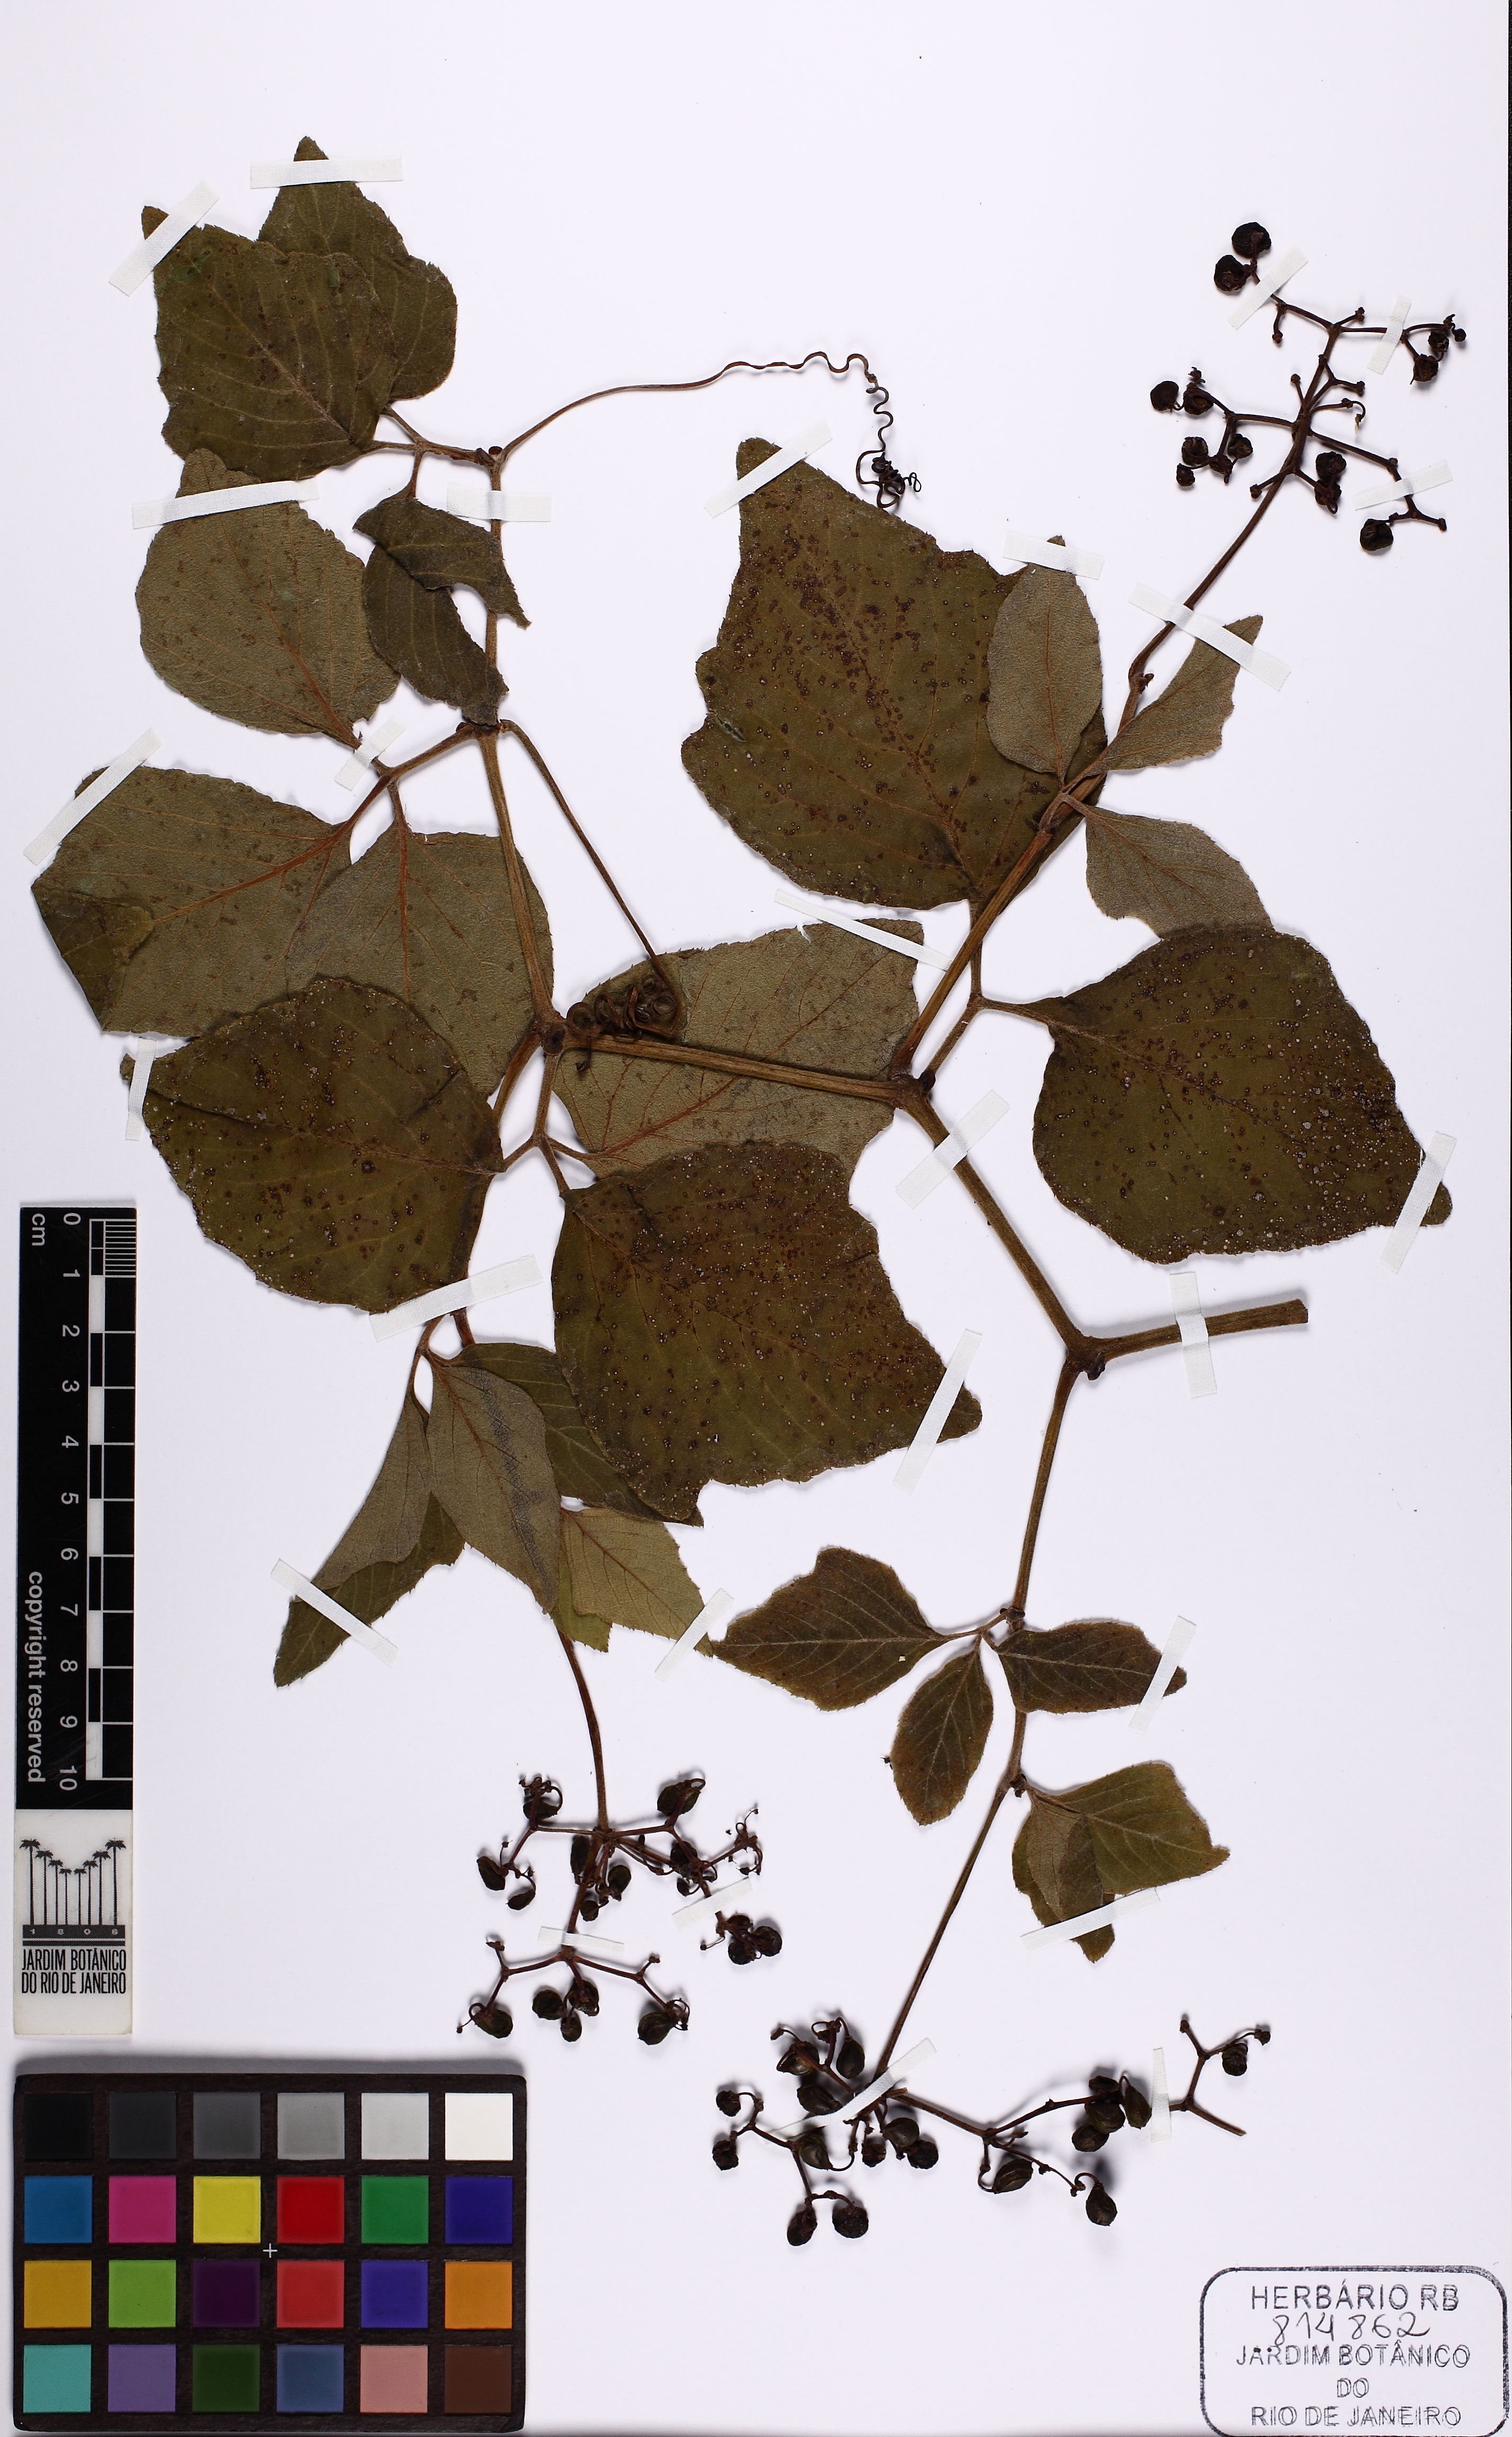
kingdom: Plantae
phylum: Tracheophyta
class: Magnoliopsida
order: Vitales
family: Vitaceae
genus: Cissus
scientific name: Cissus erosa
